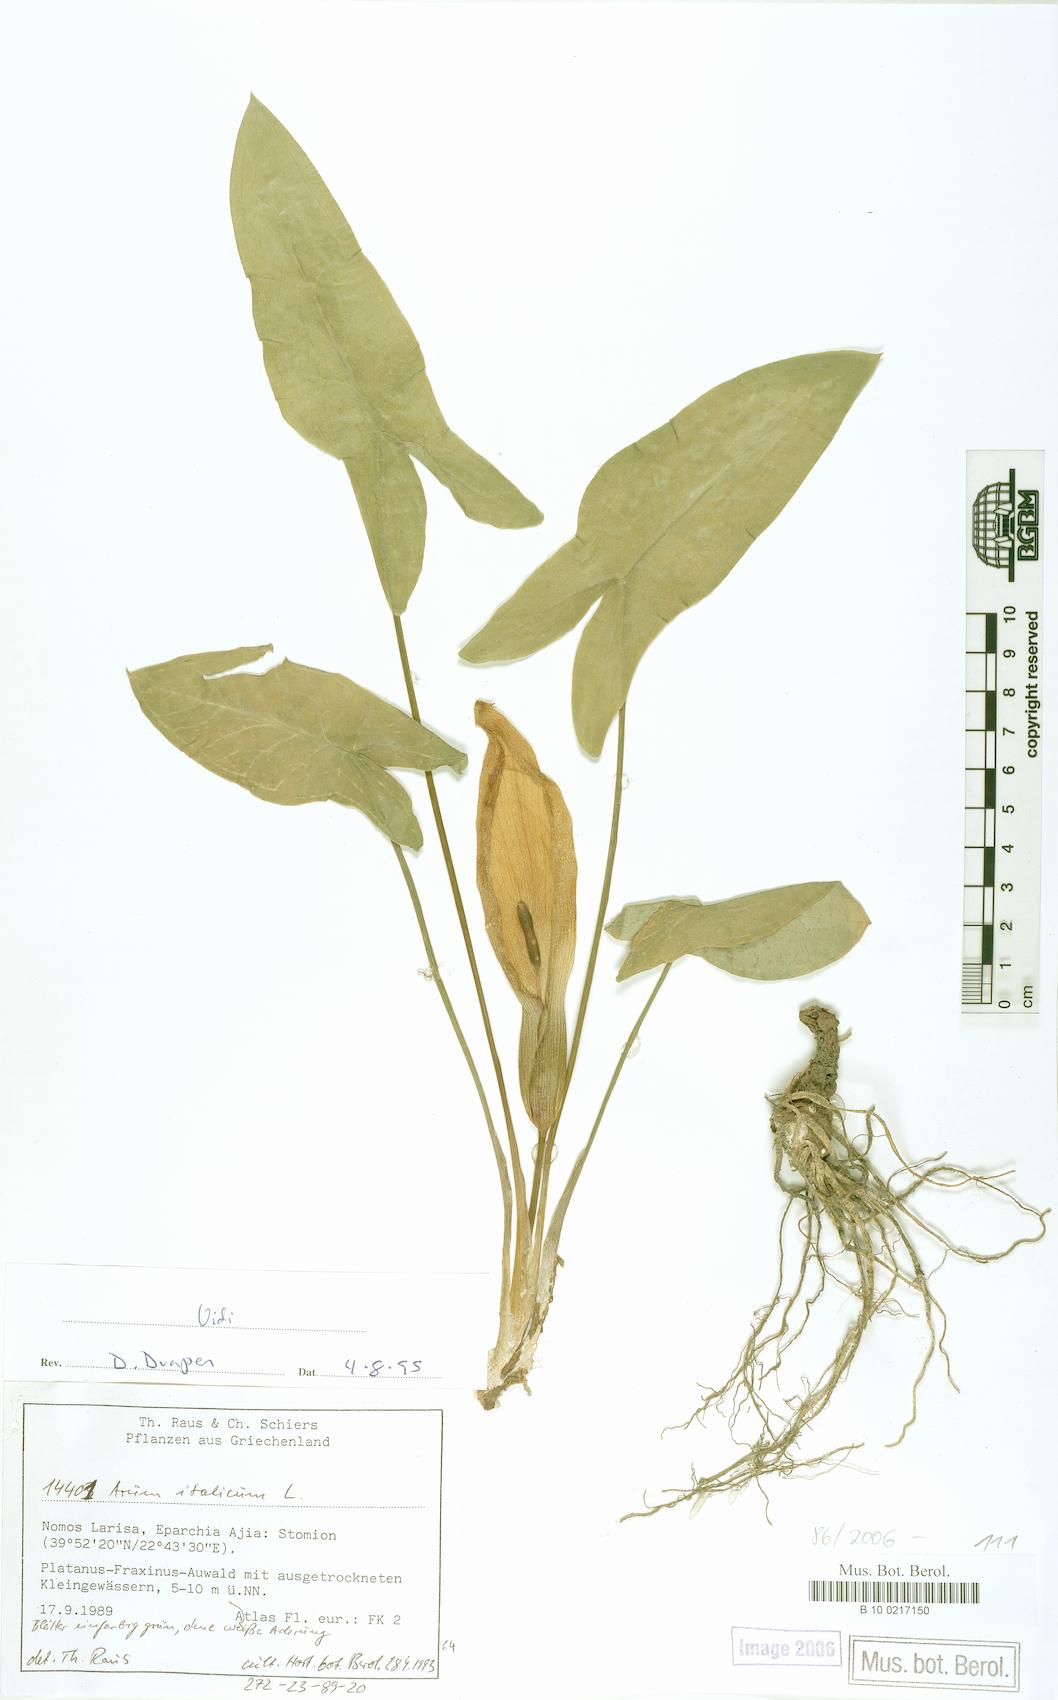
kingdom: Plantae
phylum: Tracheophyta
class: Liliopsida
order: Alismatales
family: Araceae
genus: Arum
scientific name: Arum italicum
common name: Italian lords-and-ladies
